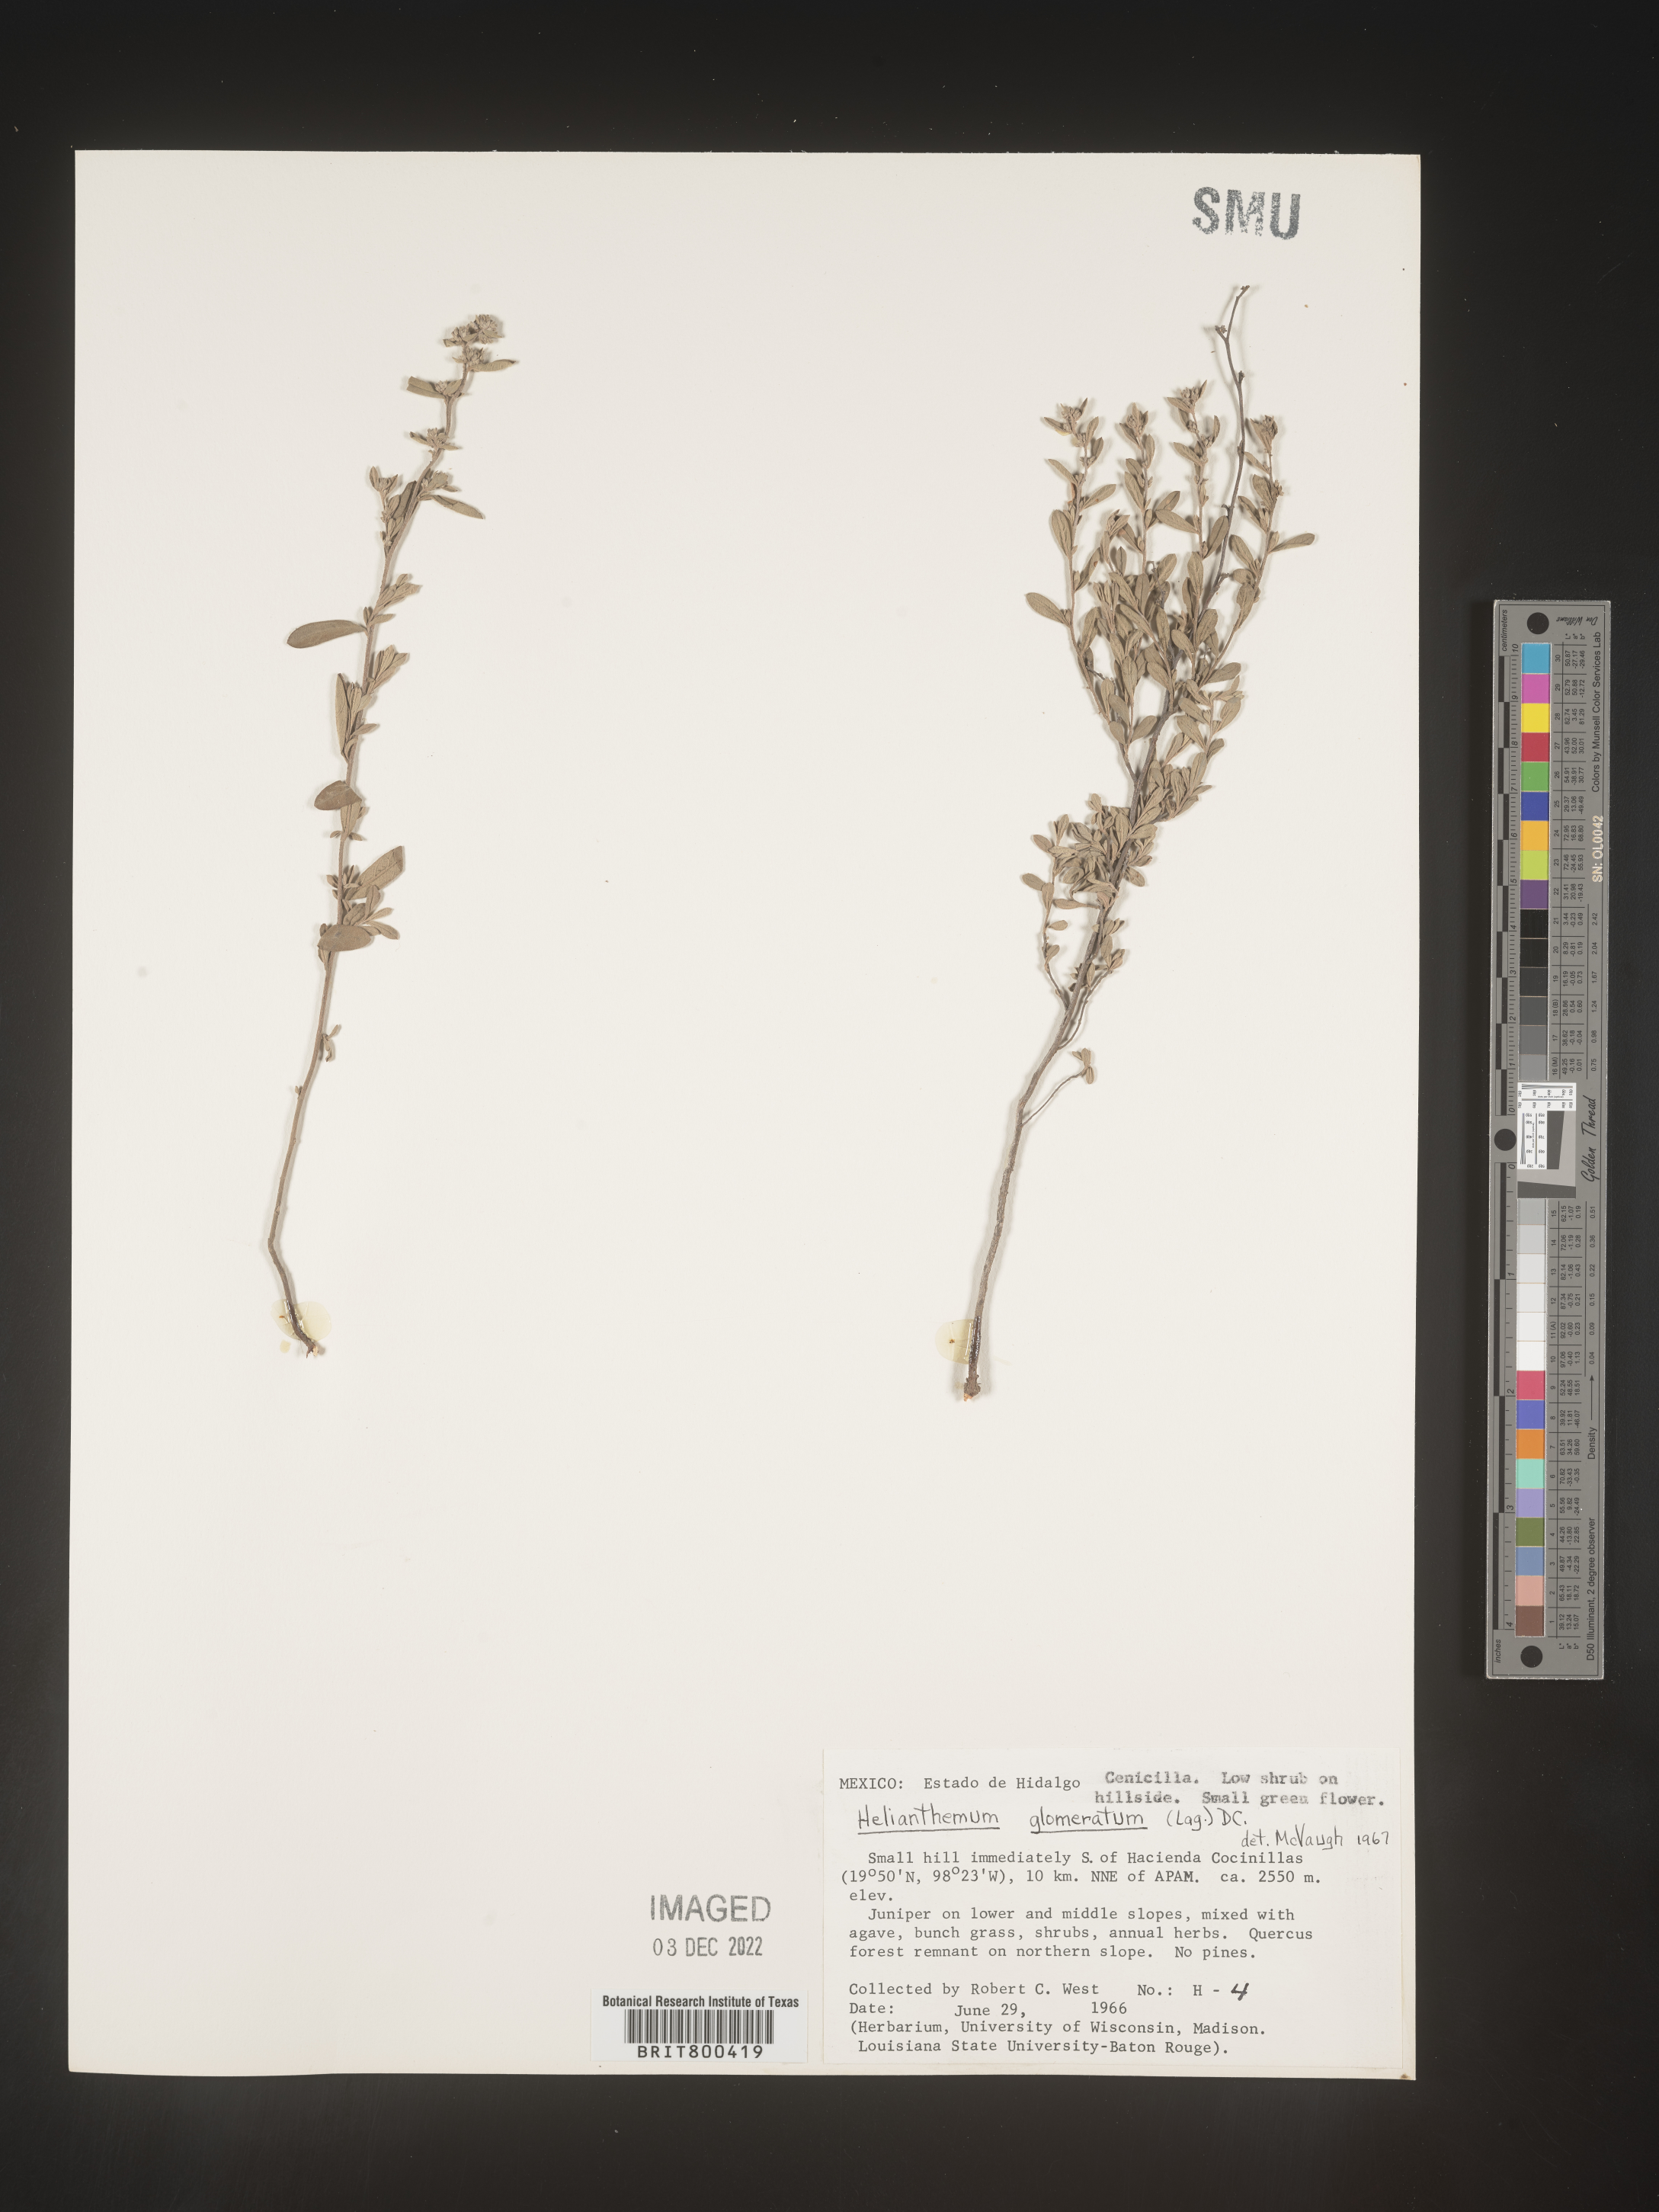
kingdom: Plantae
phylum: Tracheophyta
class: Magnoliopsida
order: Malvales
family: Cistaceae
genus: Helianthemum
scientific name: Helianthemum
